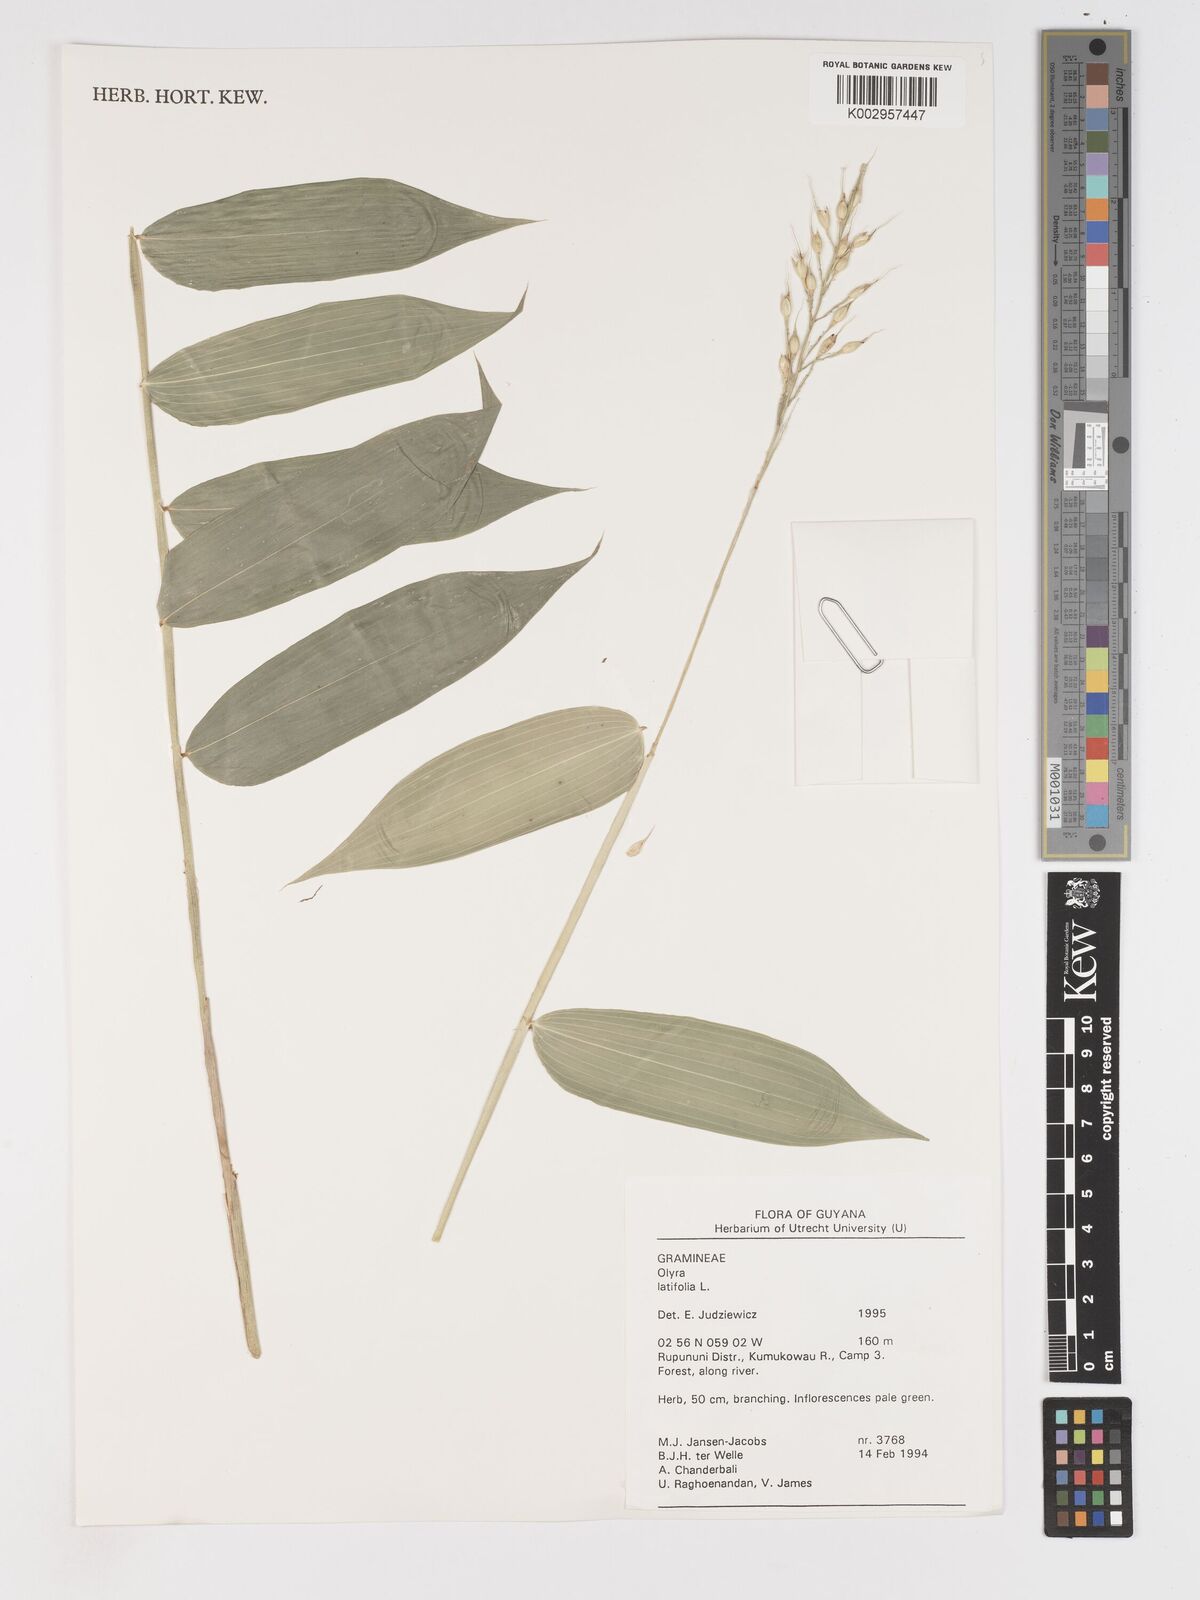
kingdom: Plantae
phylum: Tracheophyta
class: Liliopsida
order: Poales
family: Poaceae
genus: Olyra
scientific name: Olyra latifolia
